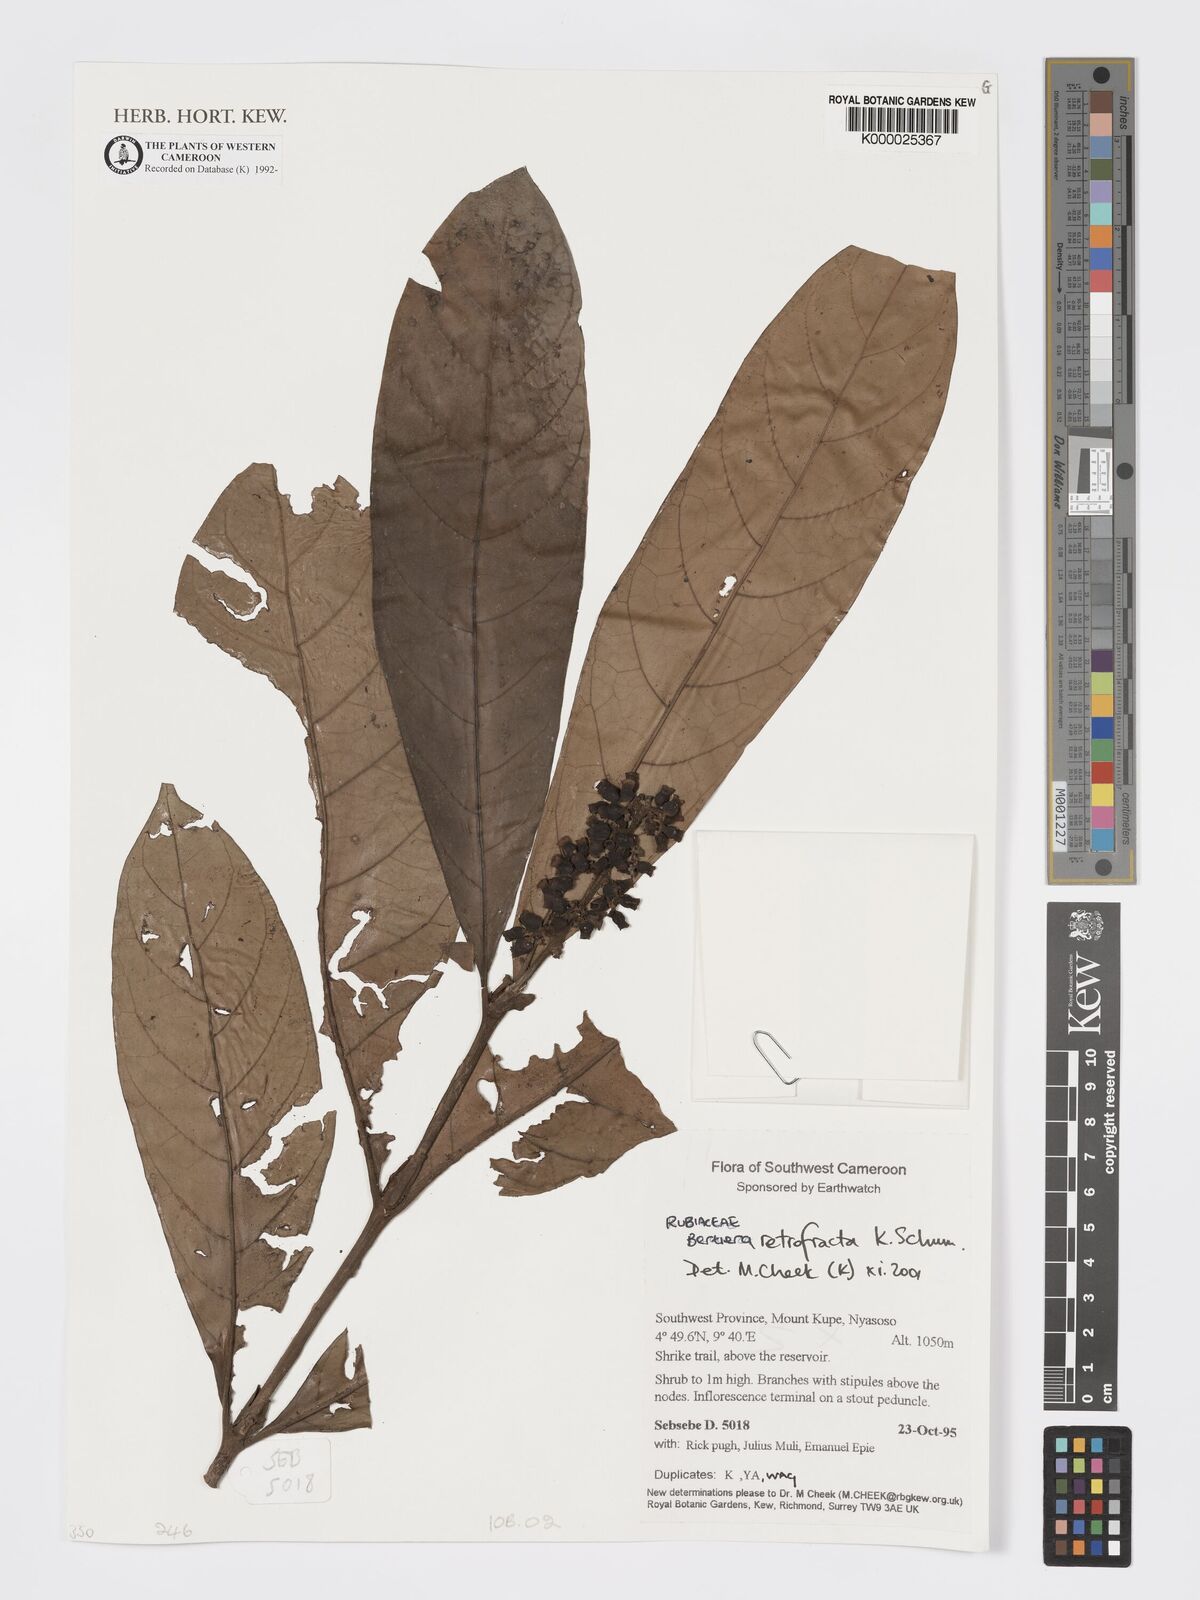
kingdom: Plantae
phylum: Tracheophyta
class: Magnoliopsida
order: Gentianales
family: Rubiaceae
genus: Bertiera
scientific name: Bertiera retrofracta
